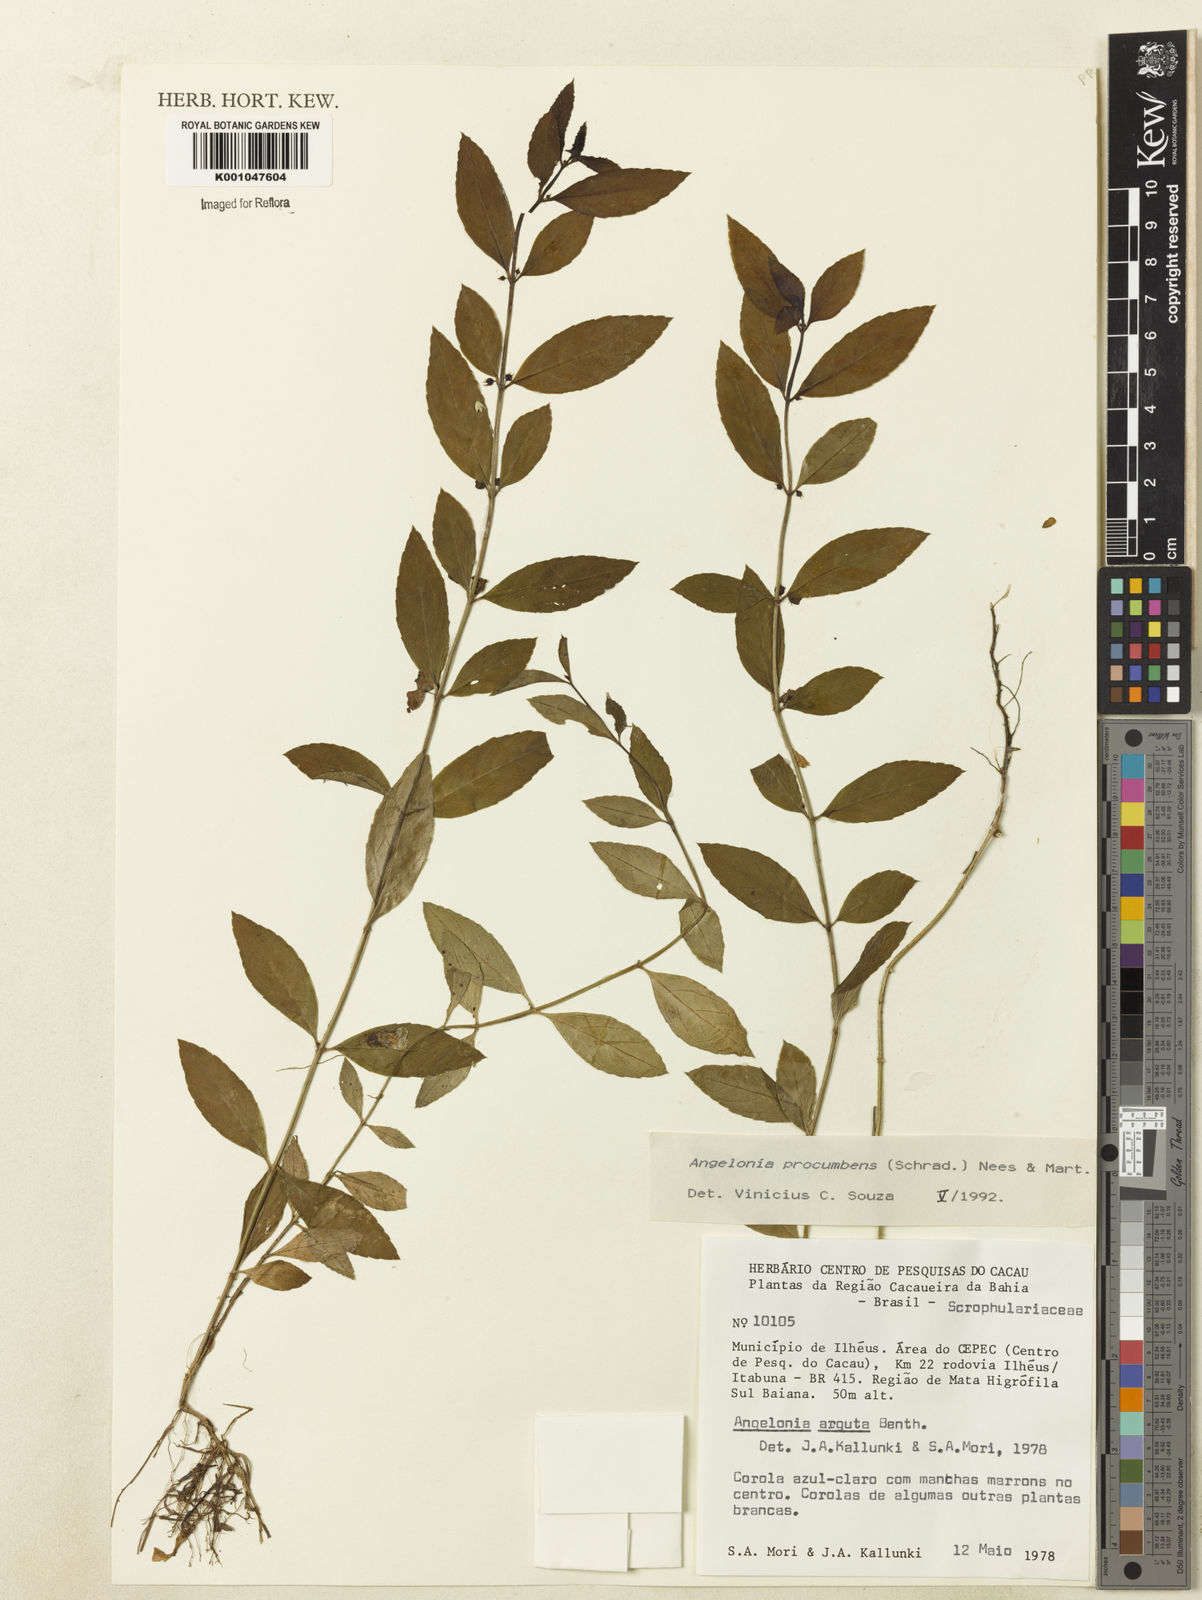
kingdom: Plantae
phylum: Tracheophyta
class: Magnoliopsida
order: Lamiales
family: Plantaginaceae
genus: Angelonia
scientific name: Angelonia procumbens
